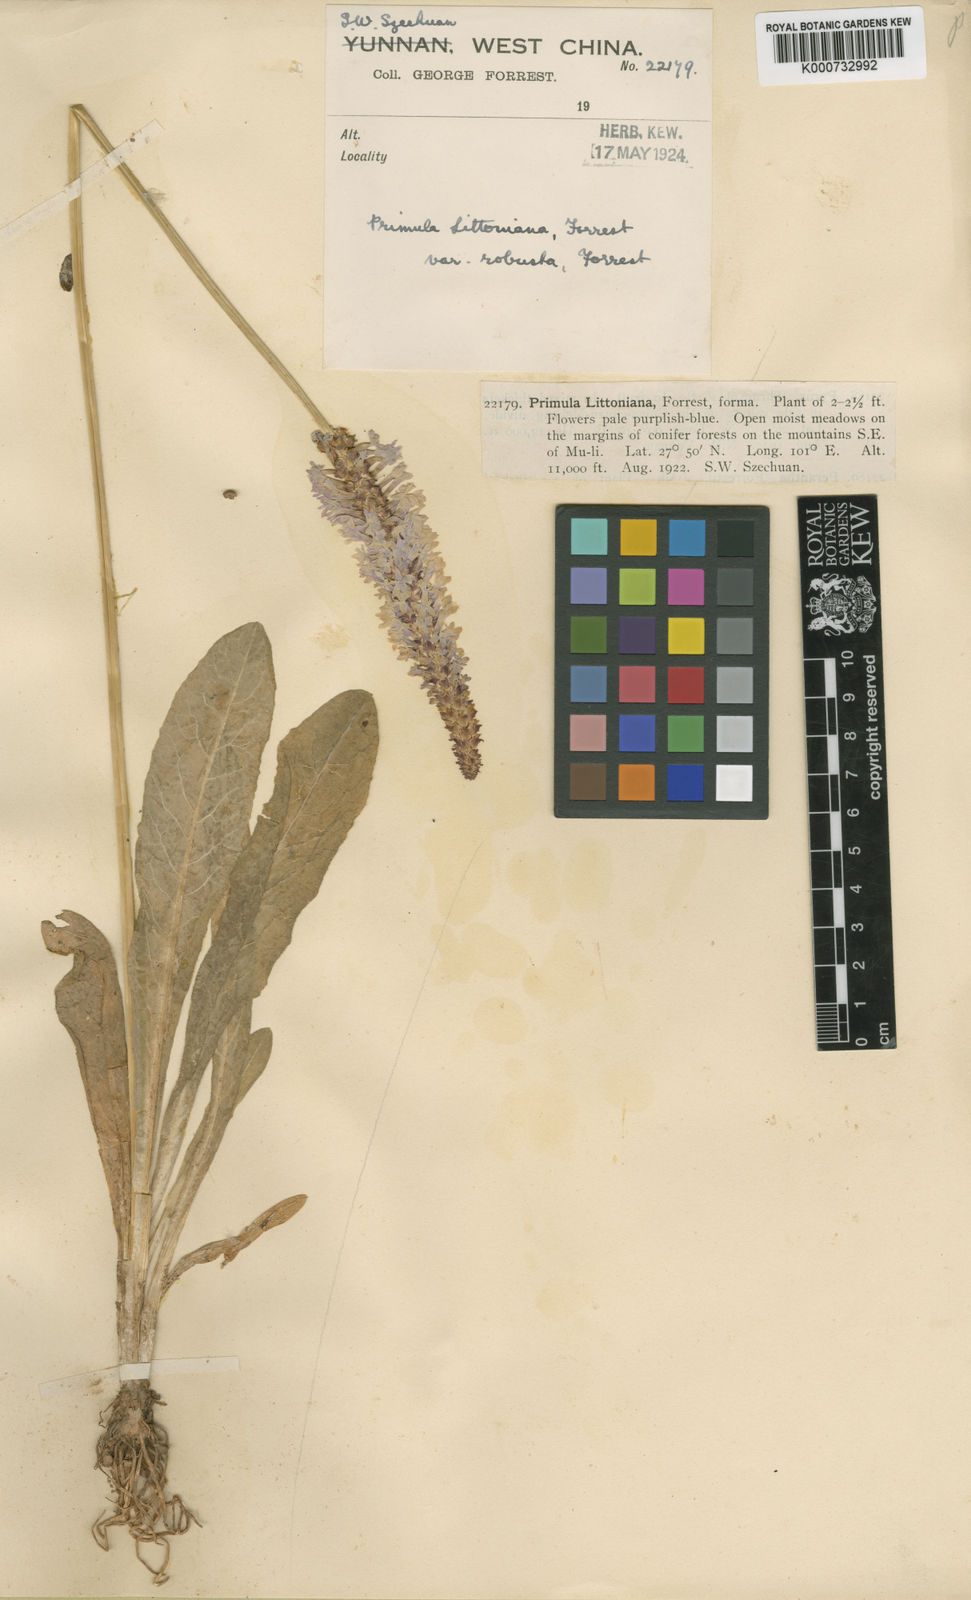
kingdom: Plantae
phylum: Tracheophyta
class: Magnoliopsida
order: Ericales
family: Primulaceae
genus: Primula
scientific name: Primula vialii
